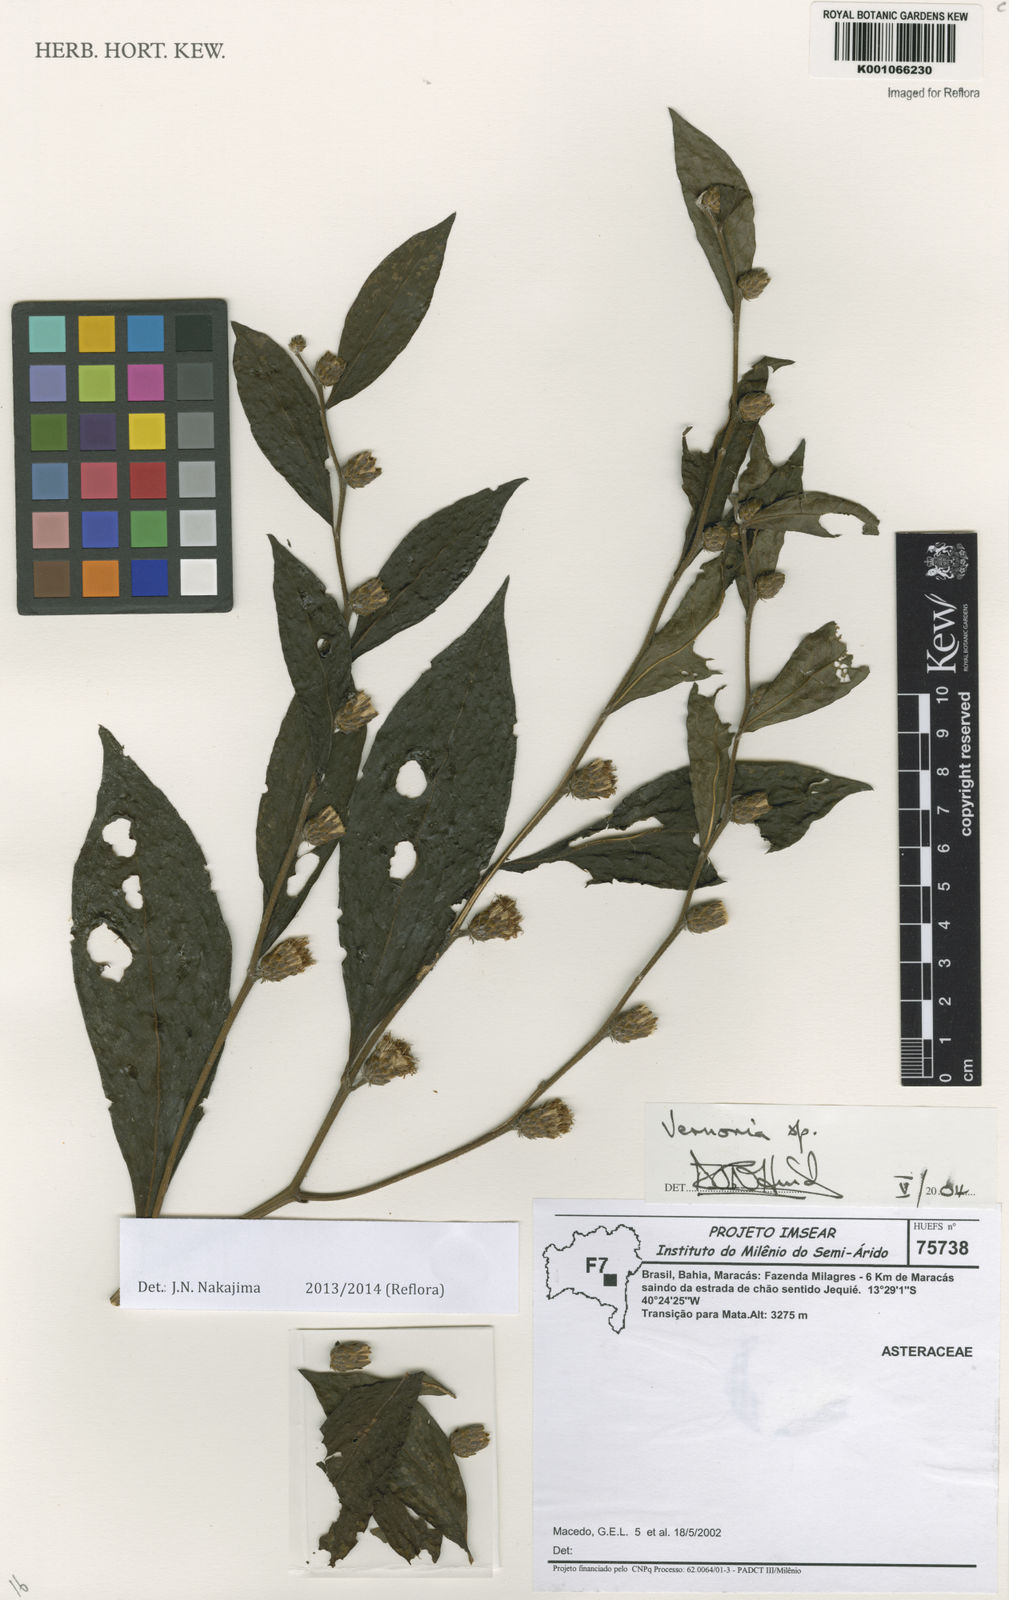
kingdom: Plantae
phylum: Tracheophyta
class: Magnoliopsida
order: Asterales
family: Asteraceae
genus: Lessingianthus
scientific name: Lessingianthus morii
